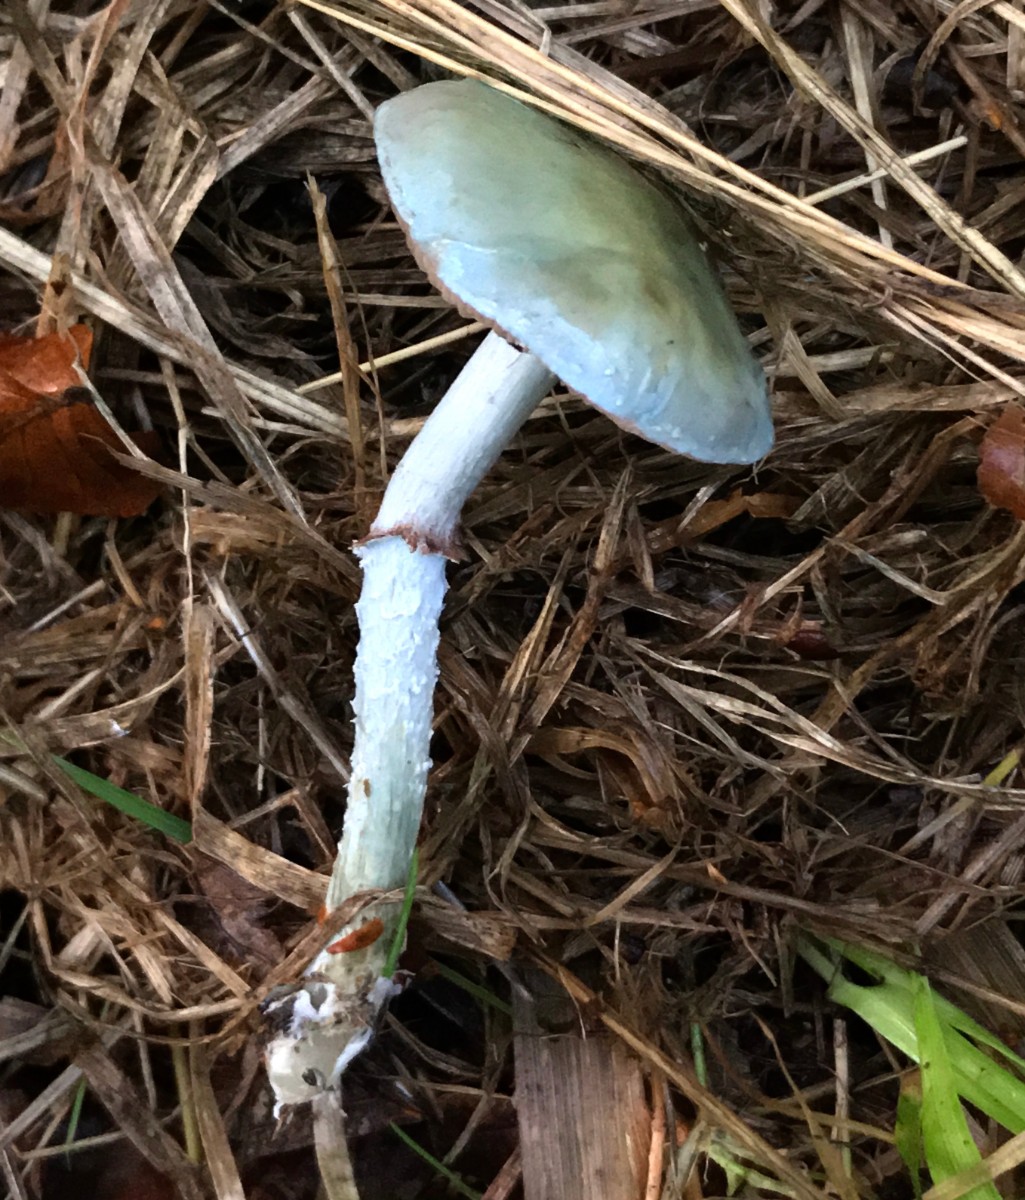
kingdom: Fungi
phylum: Basidiomycota
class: Agaricomycetes
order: Agaricales
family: Strophariaceae
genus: Stropharia
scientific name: Stropharia cyanea
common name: blågrøn bredblad
